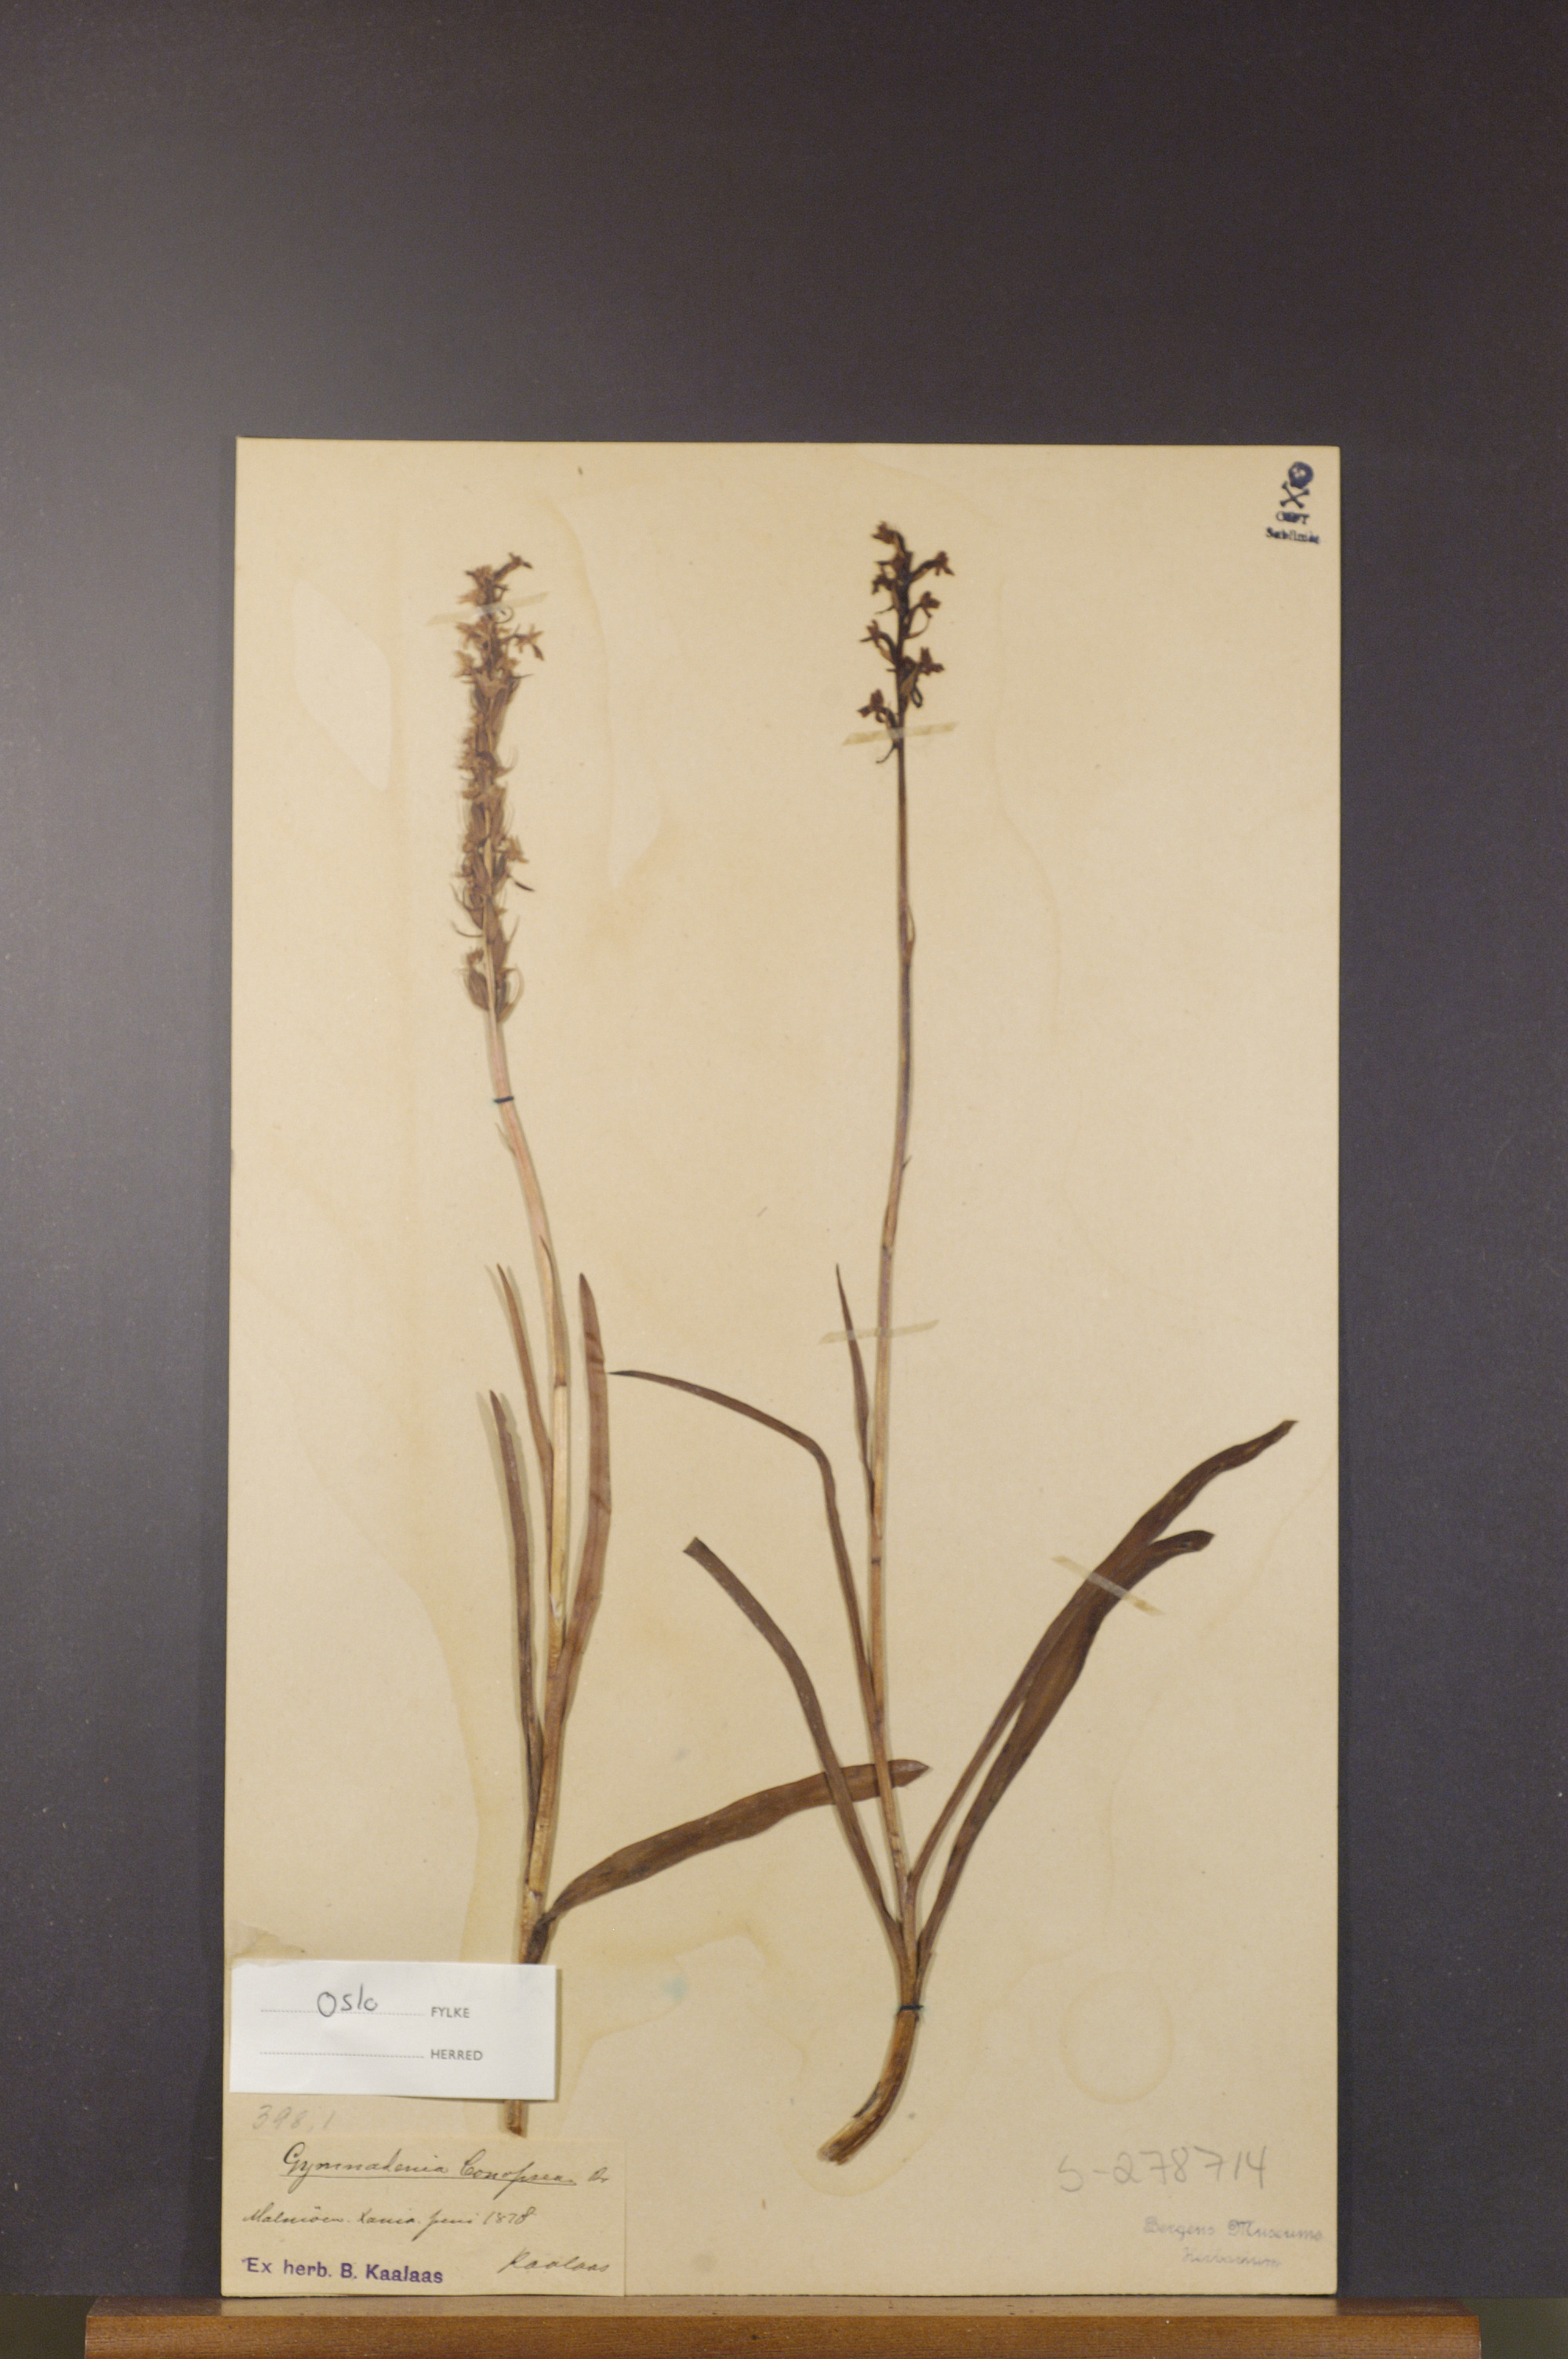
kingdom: Plantae
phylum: Tracheophyta
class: Liliopsida
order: Asparagales
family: Orchidaceae
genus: Gymnadenia
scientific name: Gymnadenia conopsea
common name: Fragrant orchid
